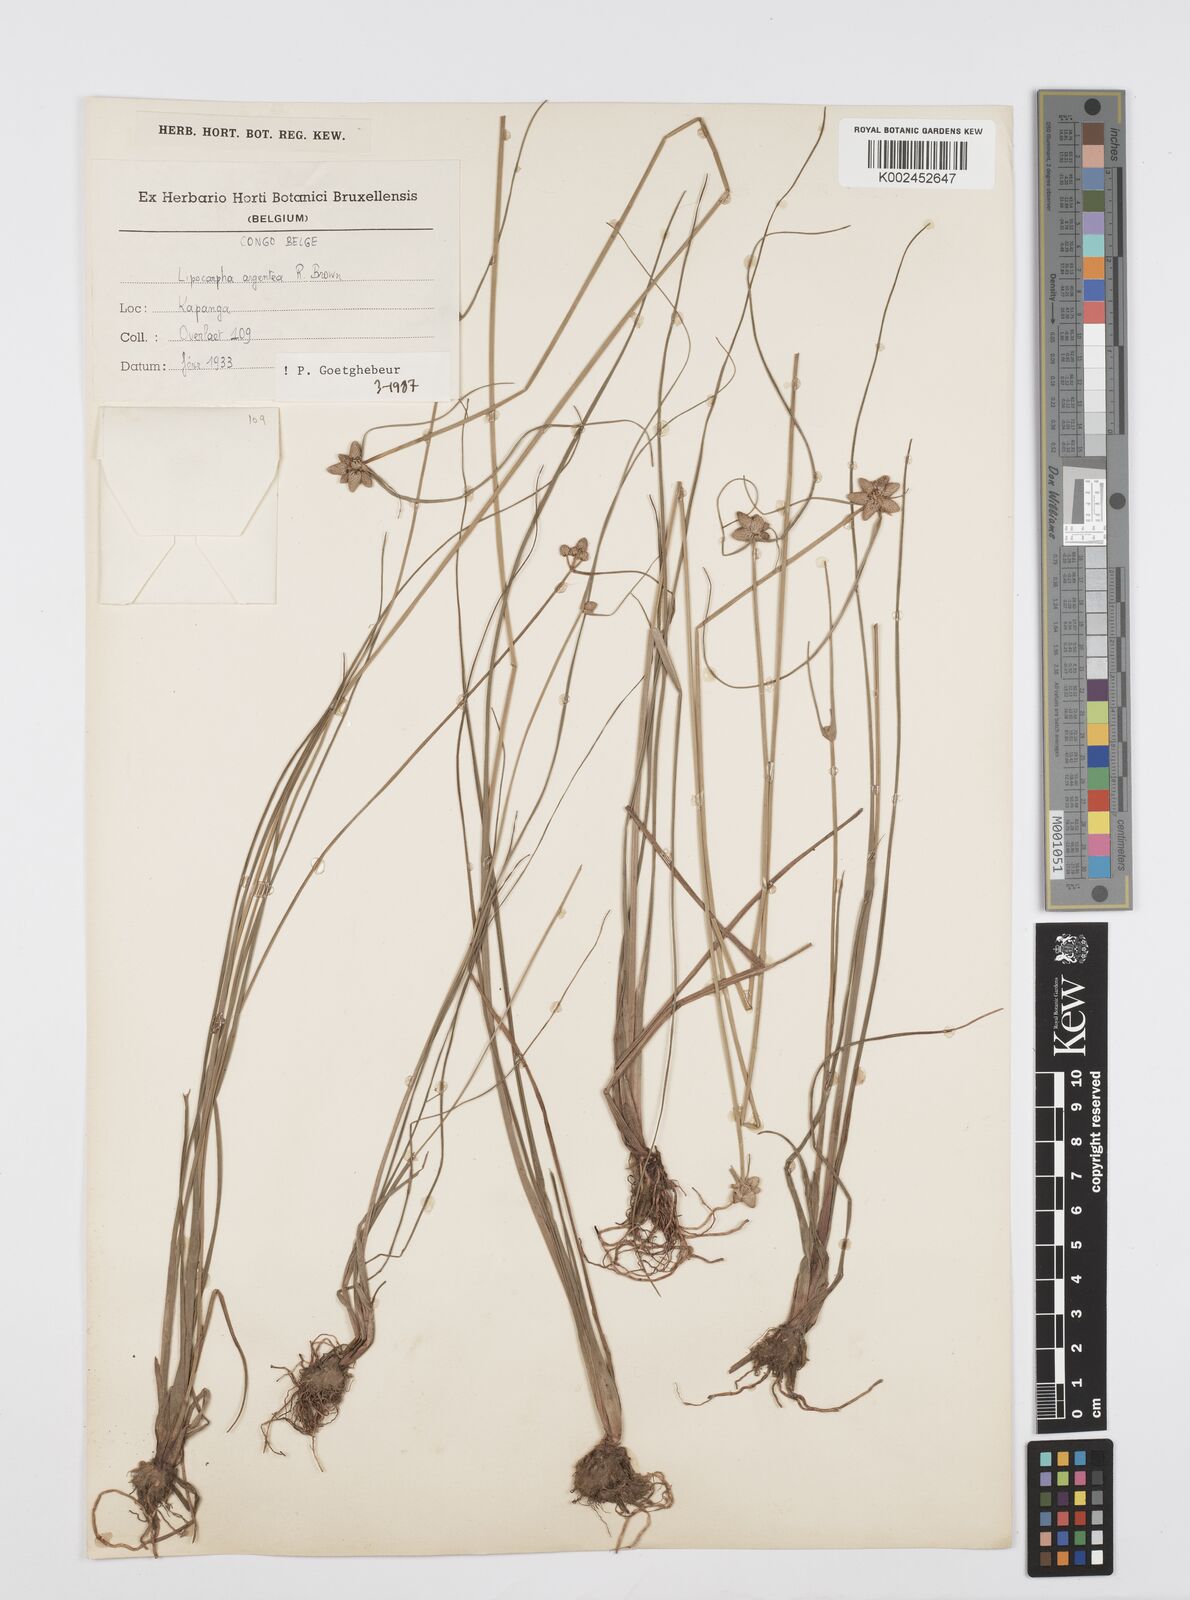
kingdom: Plantae
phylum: Tracheophyta
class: Liliopsida
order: Poales
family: Cyperaceae
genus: Cyperus
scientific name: Cyperus albescens
